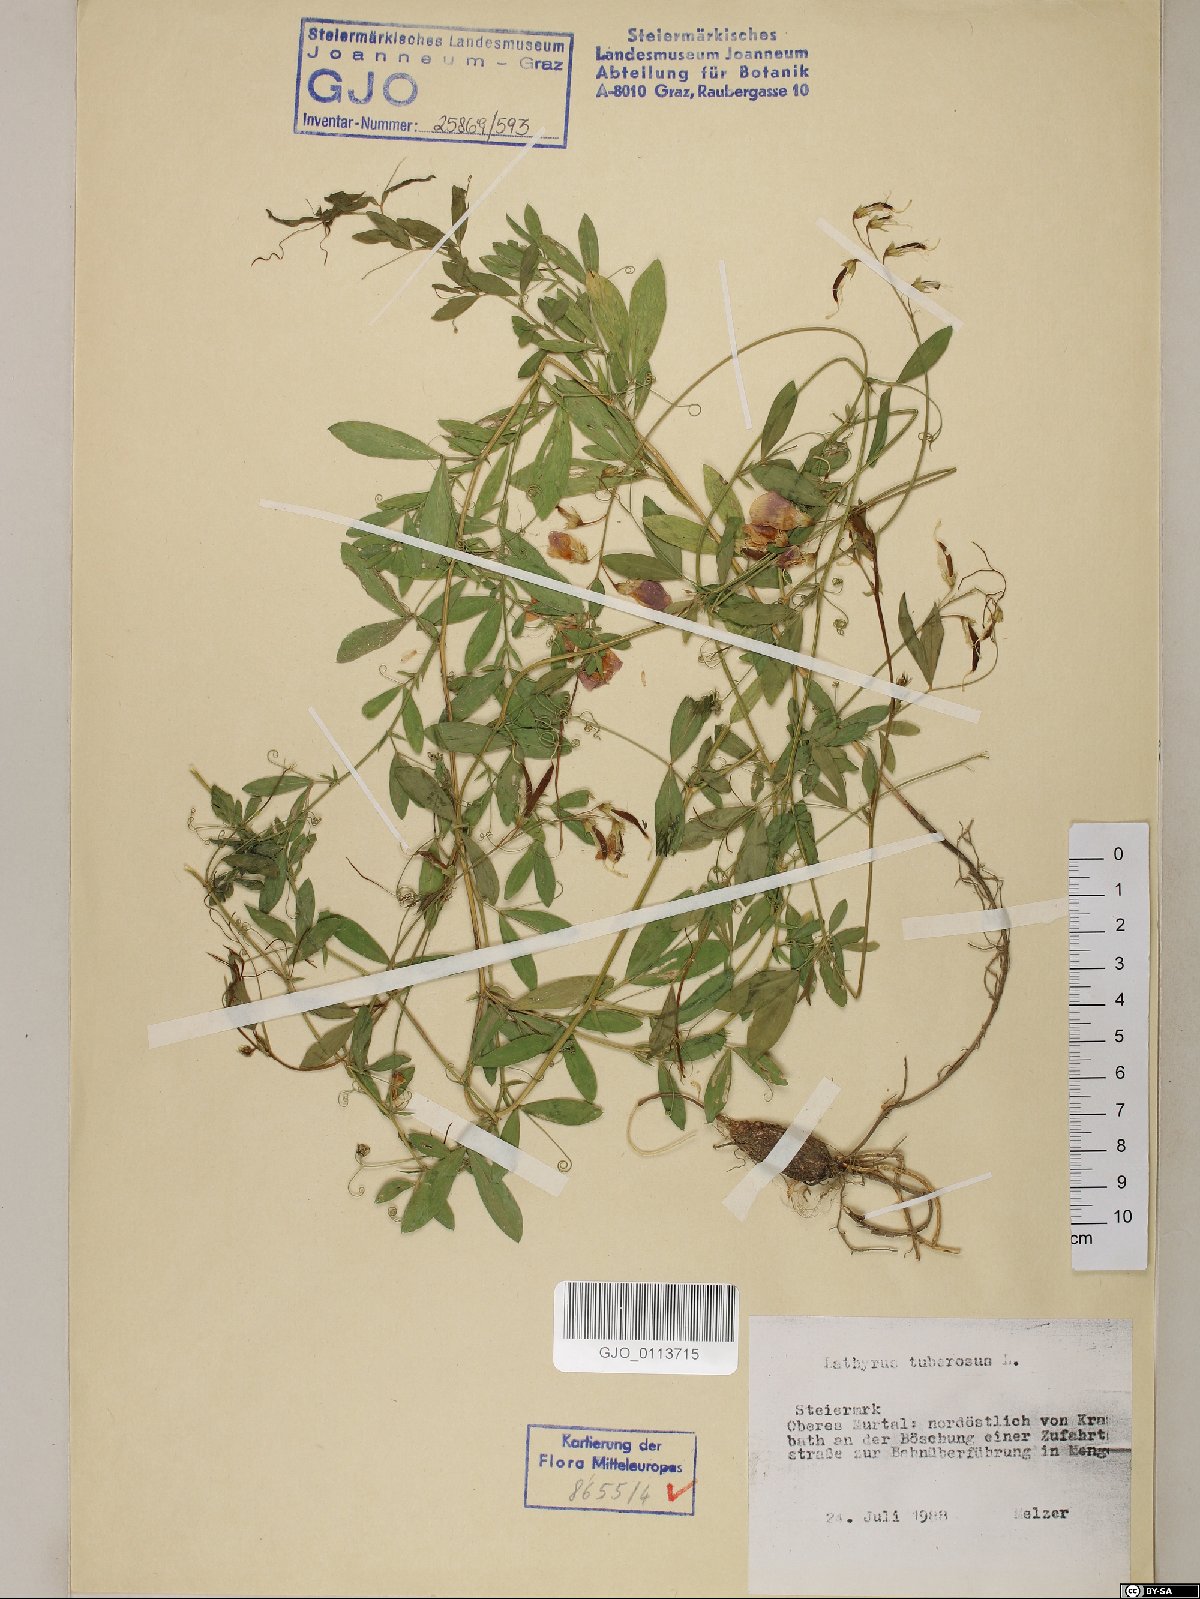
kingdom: Plantae
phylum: Tracheophyta
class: Magnoliopsida
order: Fabales
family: Fabaceae
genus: Lathyrus
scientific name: Lathyrus tuberosus
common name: Tuberous pea
